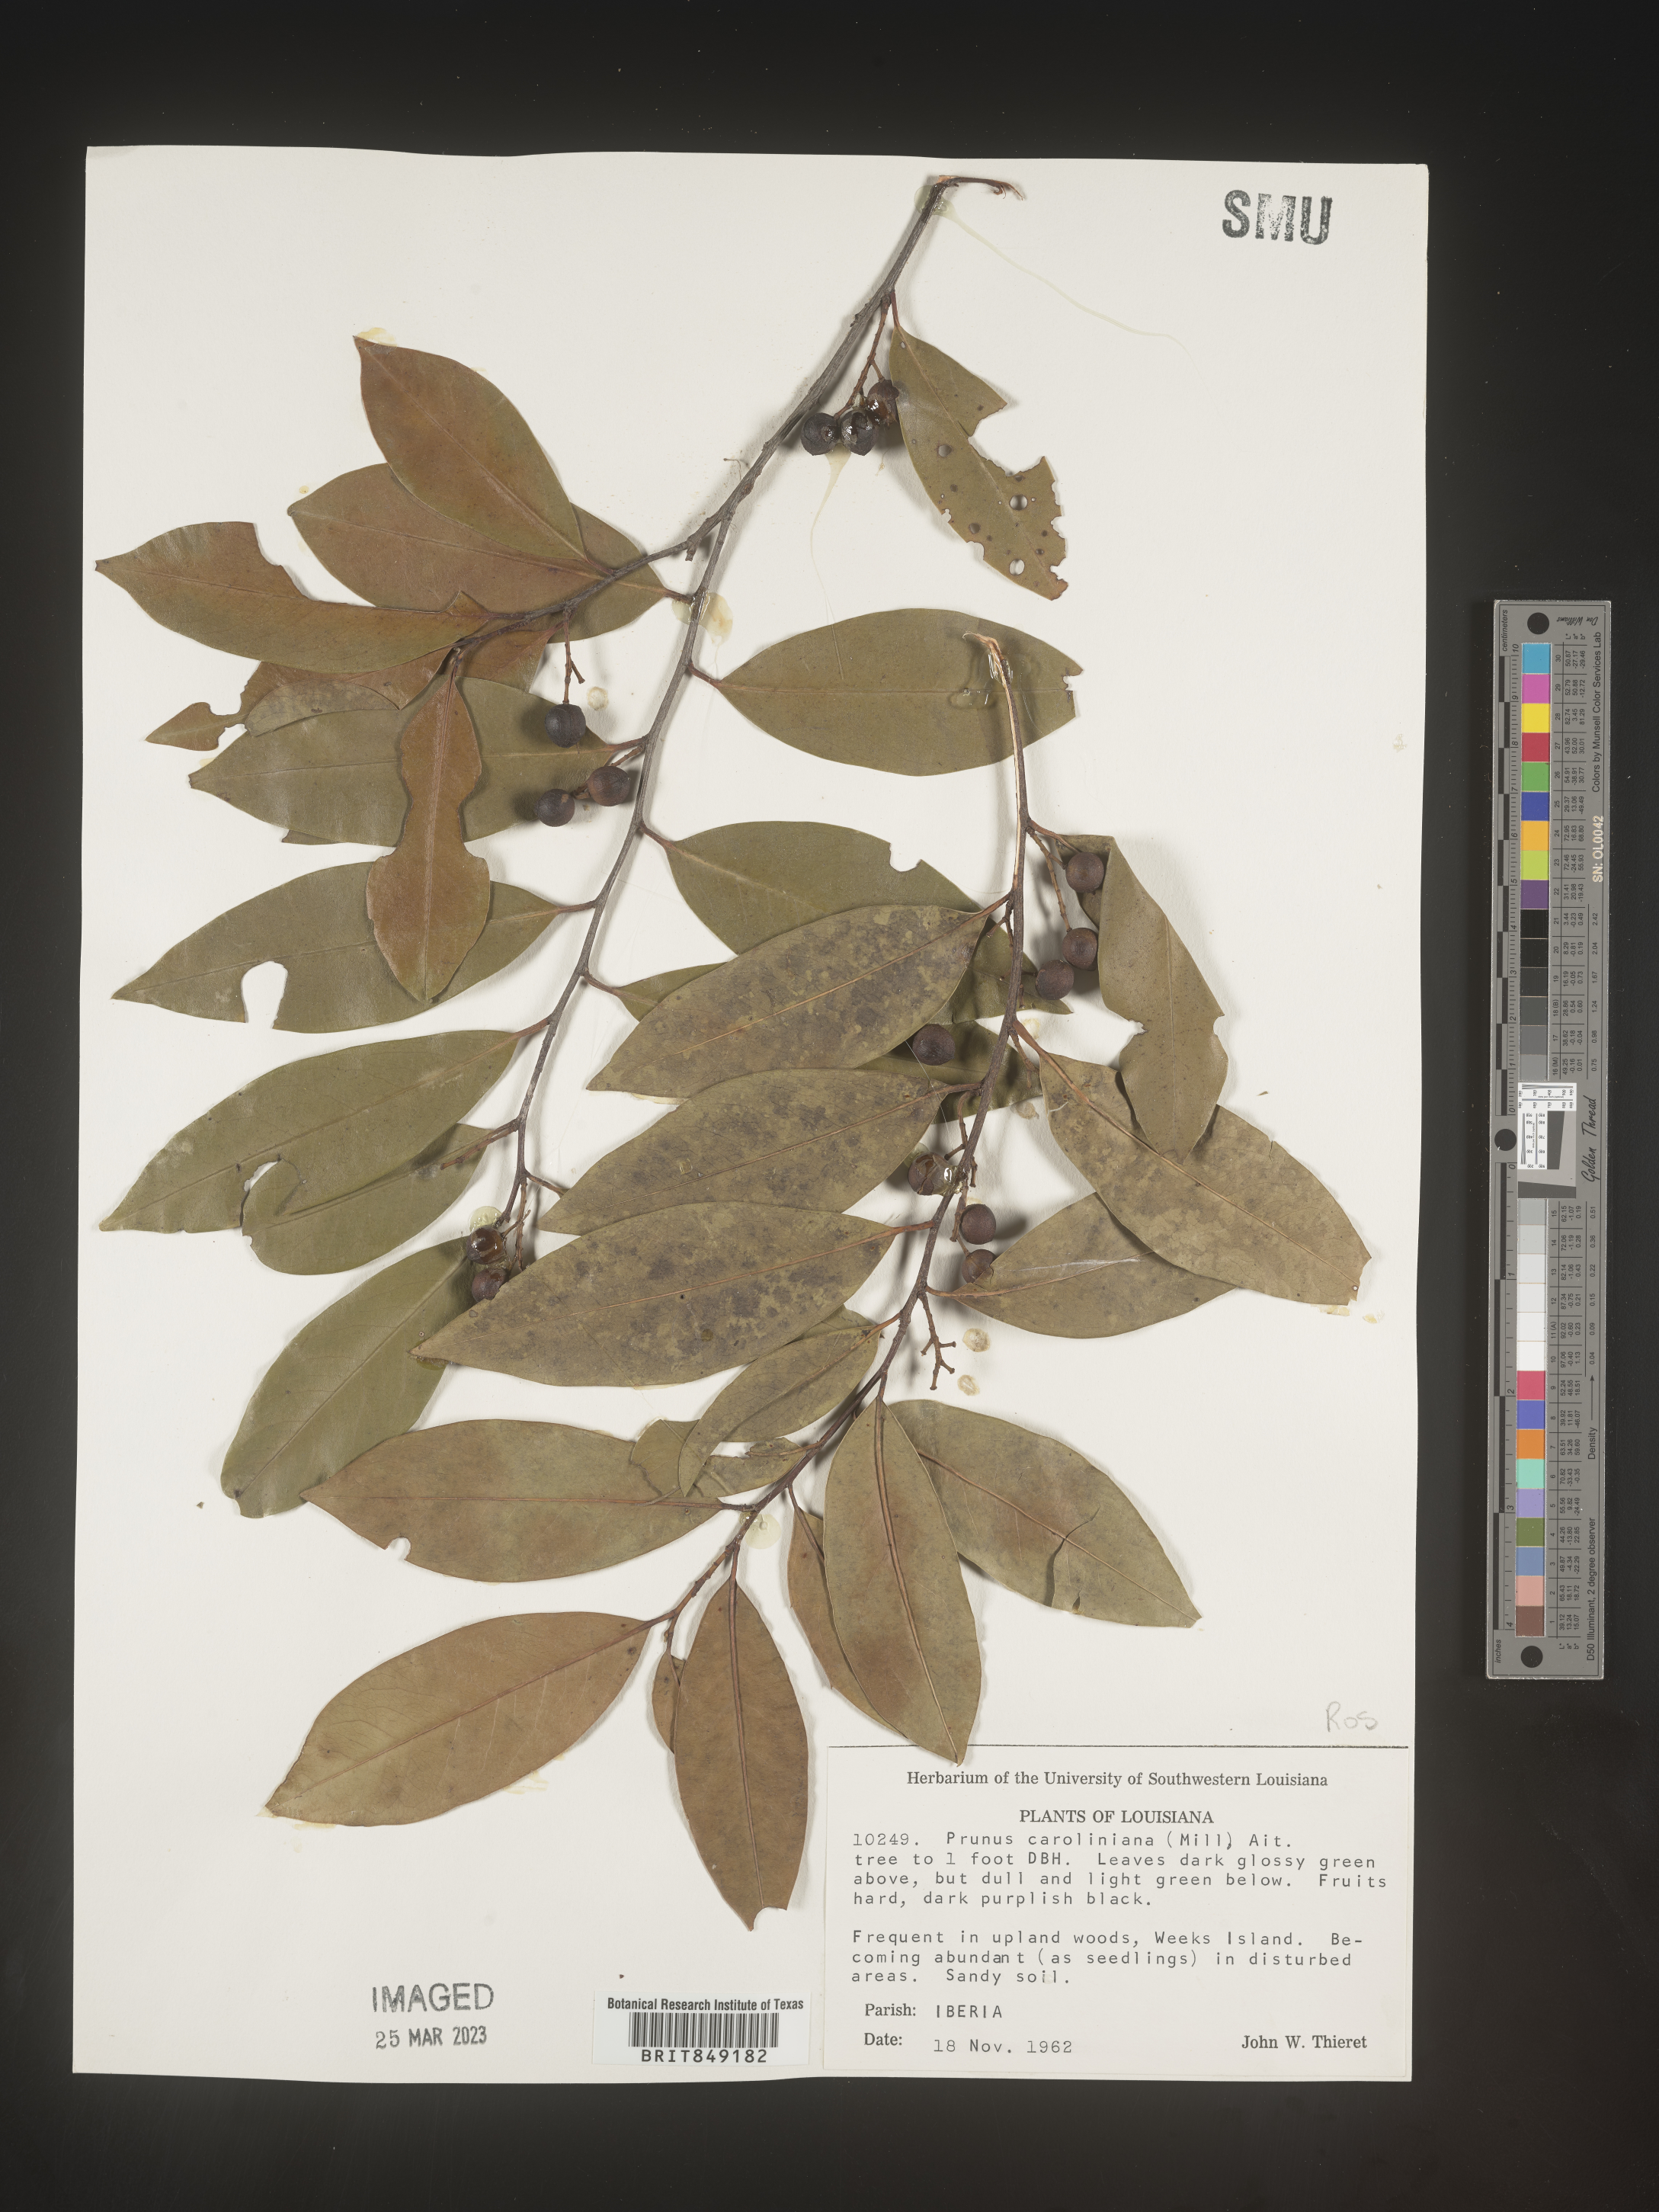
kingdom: Plantae
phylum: Tracheophyta
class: Magnoliopsida
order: Rosales
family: Rosaceae
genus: Prunus
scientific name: Prunus
